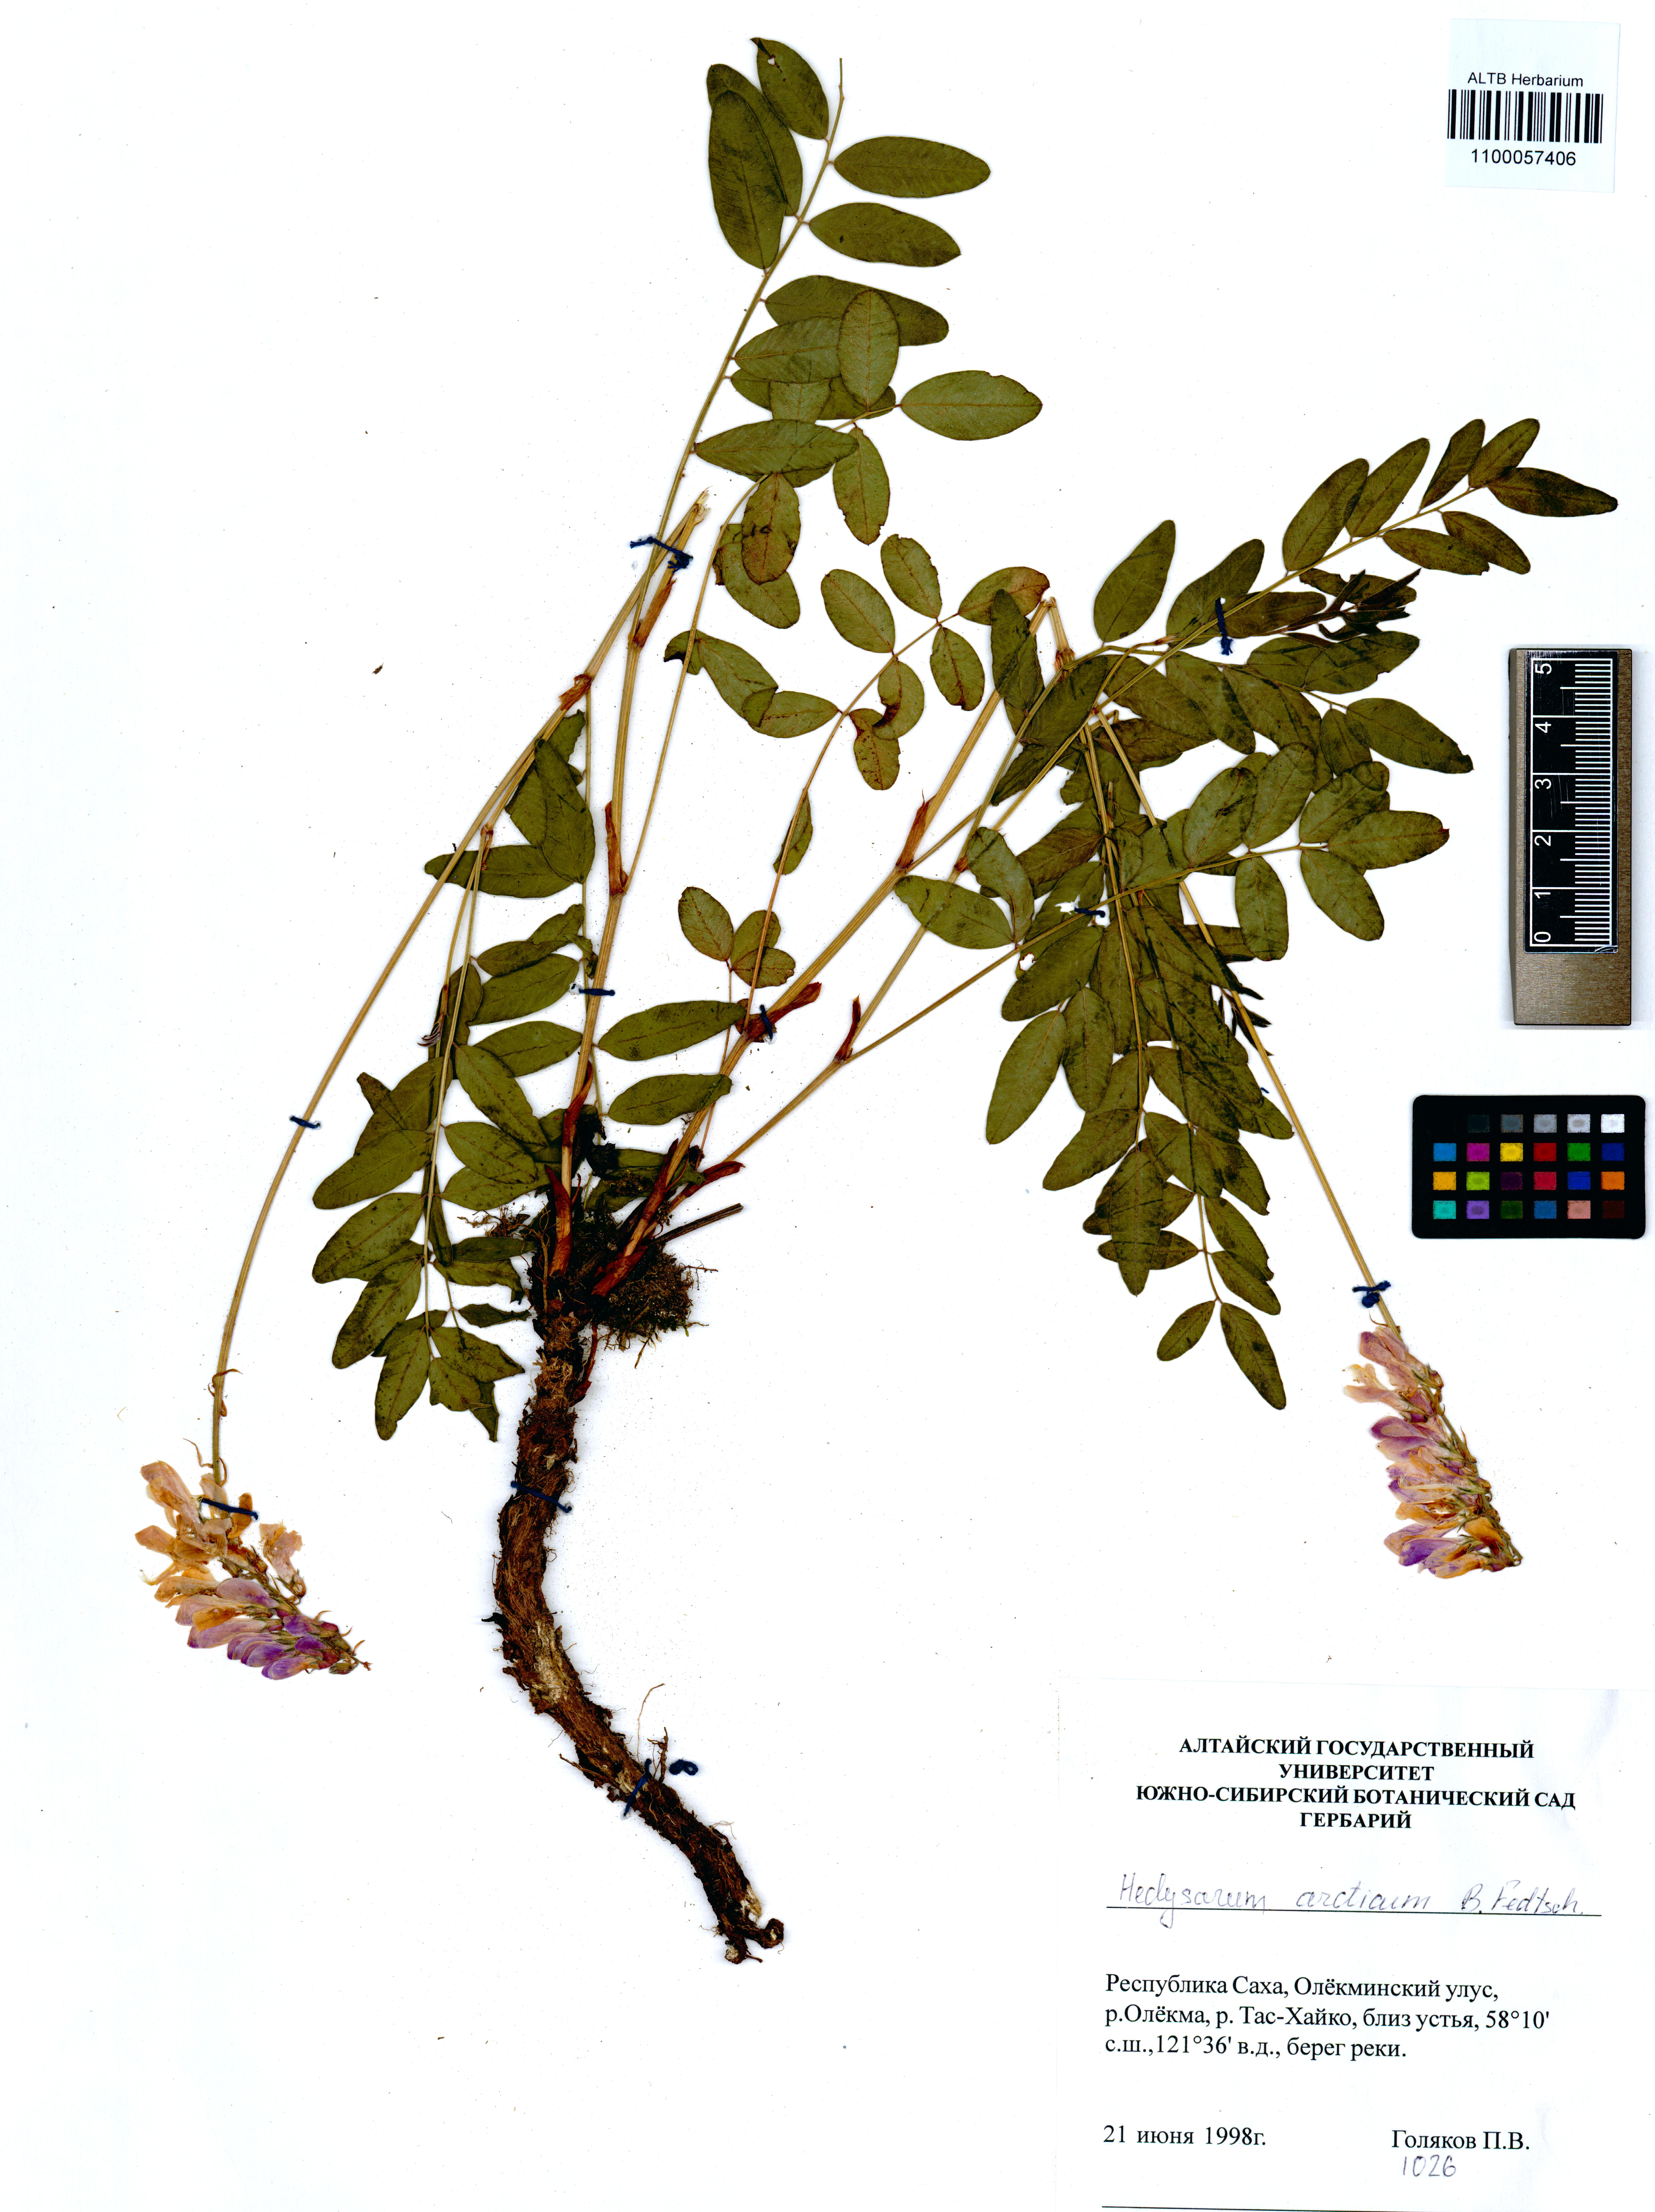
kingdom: Plantae
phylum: Tracheophyta
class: Magnoliopsida
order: Fabales
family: Fabaceae
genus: Hedysarum
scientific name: Hedysarum hedysaroides
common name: Alpine french-honeysuckle
